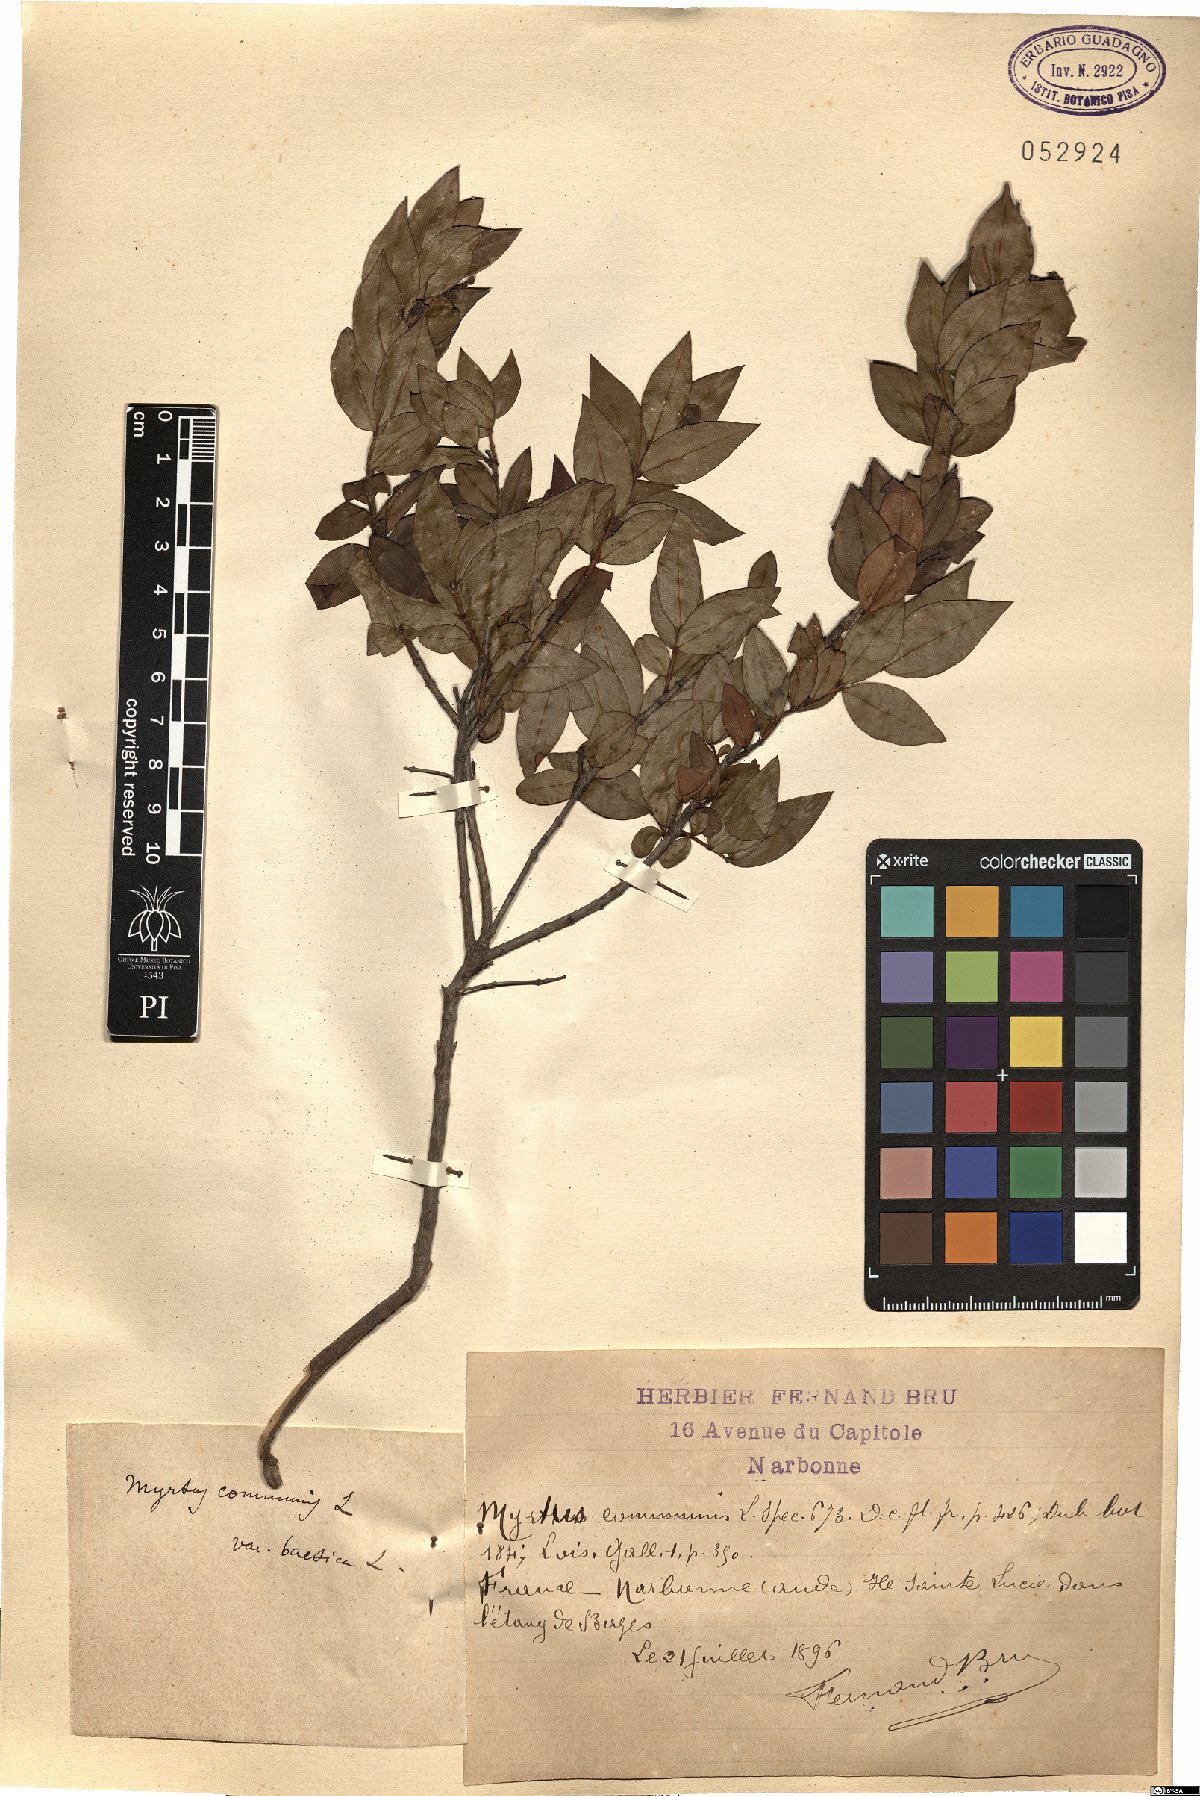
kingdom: Plantae
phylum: Tracheophyta
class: Magnoliopsida
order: Myrtales
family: Myrtaceae
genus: Myrtus
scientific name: Myrtus communis
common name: Myrtle
